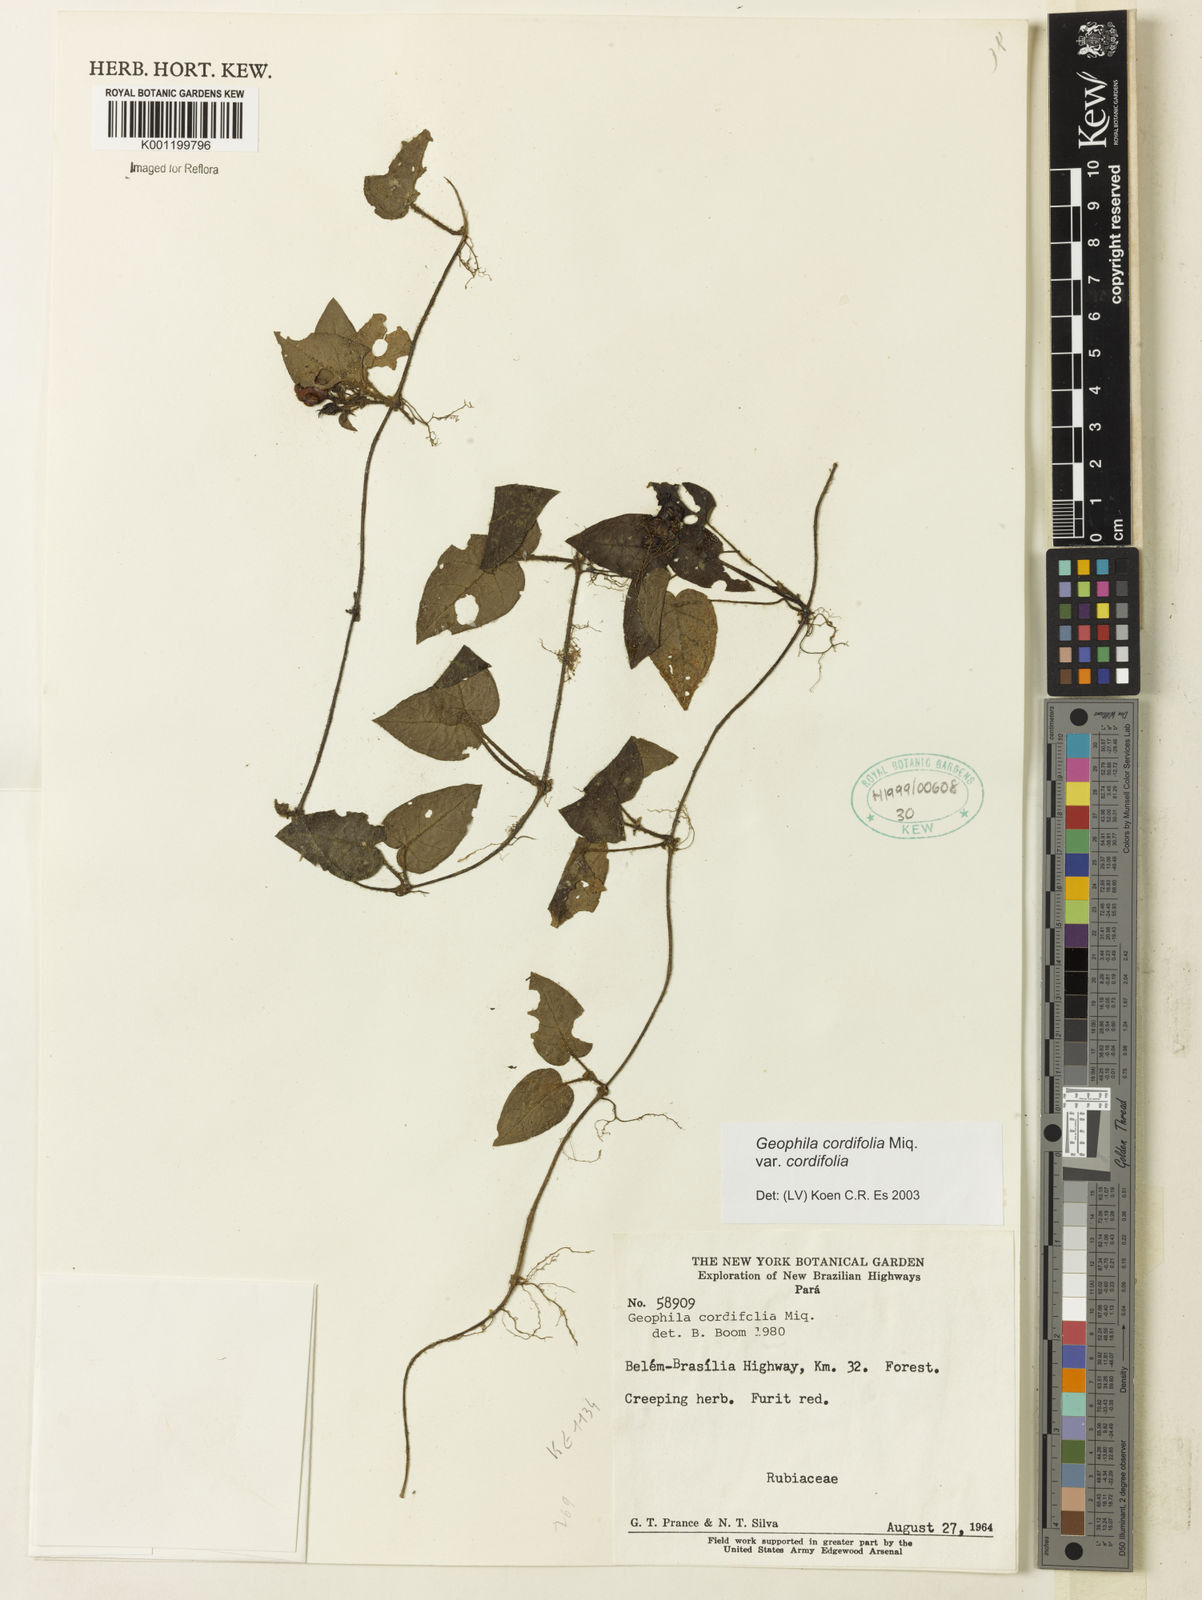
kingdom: Plantae
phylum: Tracheophyta
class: Magnoliopsida
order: Gentianales
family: Rubiaceae
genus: Geophila
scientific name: Geophila cordifolia
